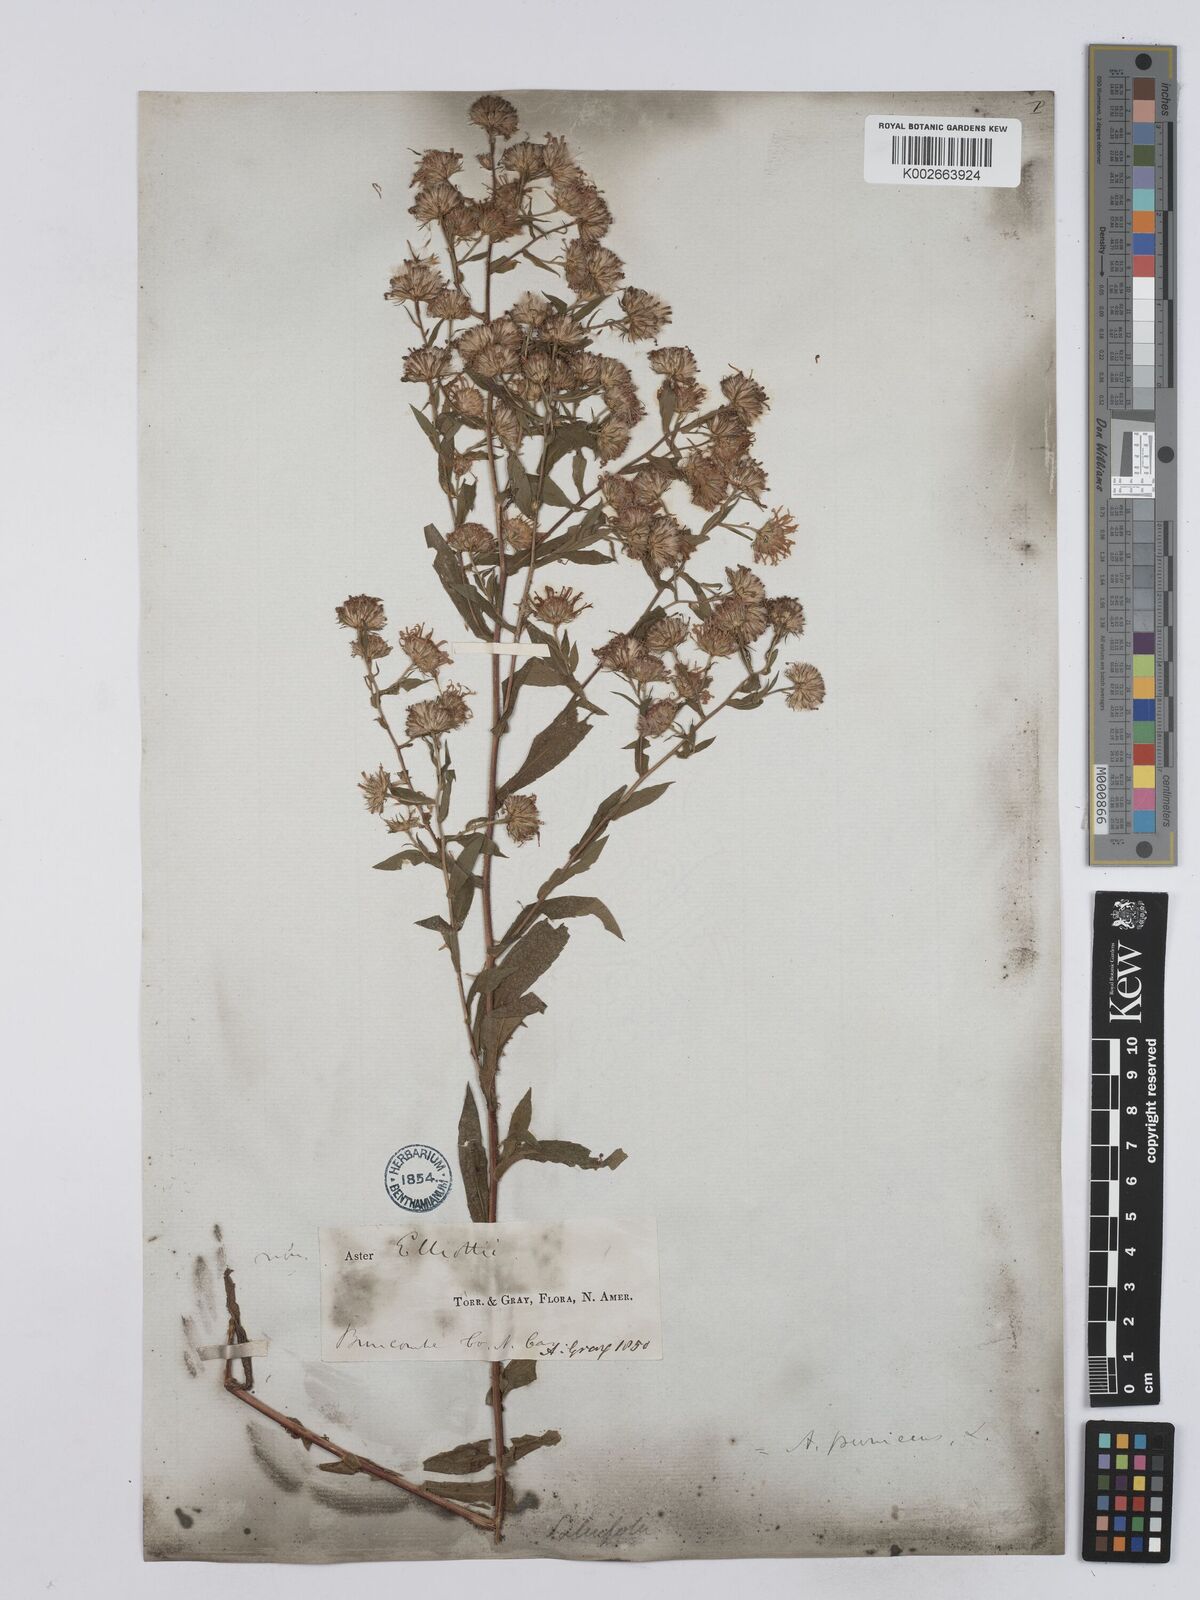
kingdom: Plantae
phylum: Tracheophyta
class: Magnoliopsida
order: Asterales
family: Asteraceae
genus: Symphyotrichum
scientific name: Symphyotrichum puniceum
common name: Bog aster
